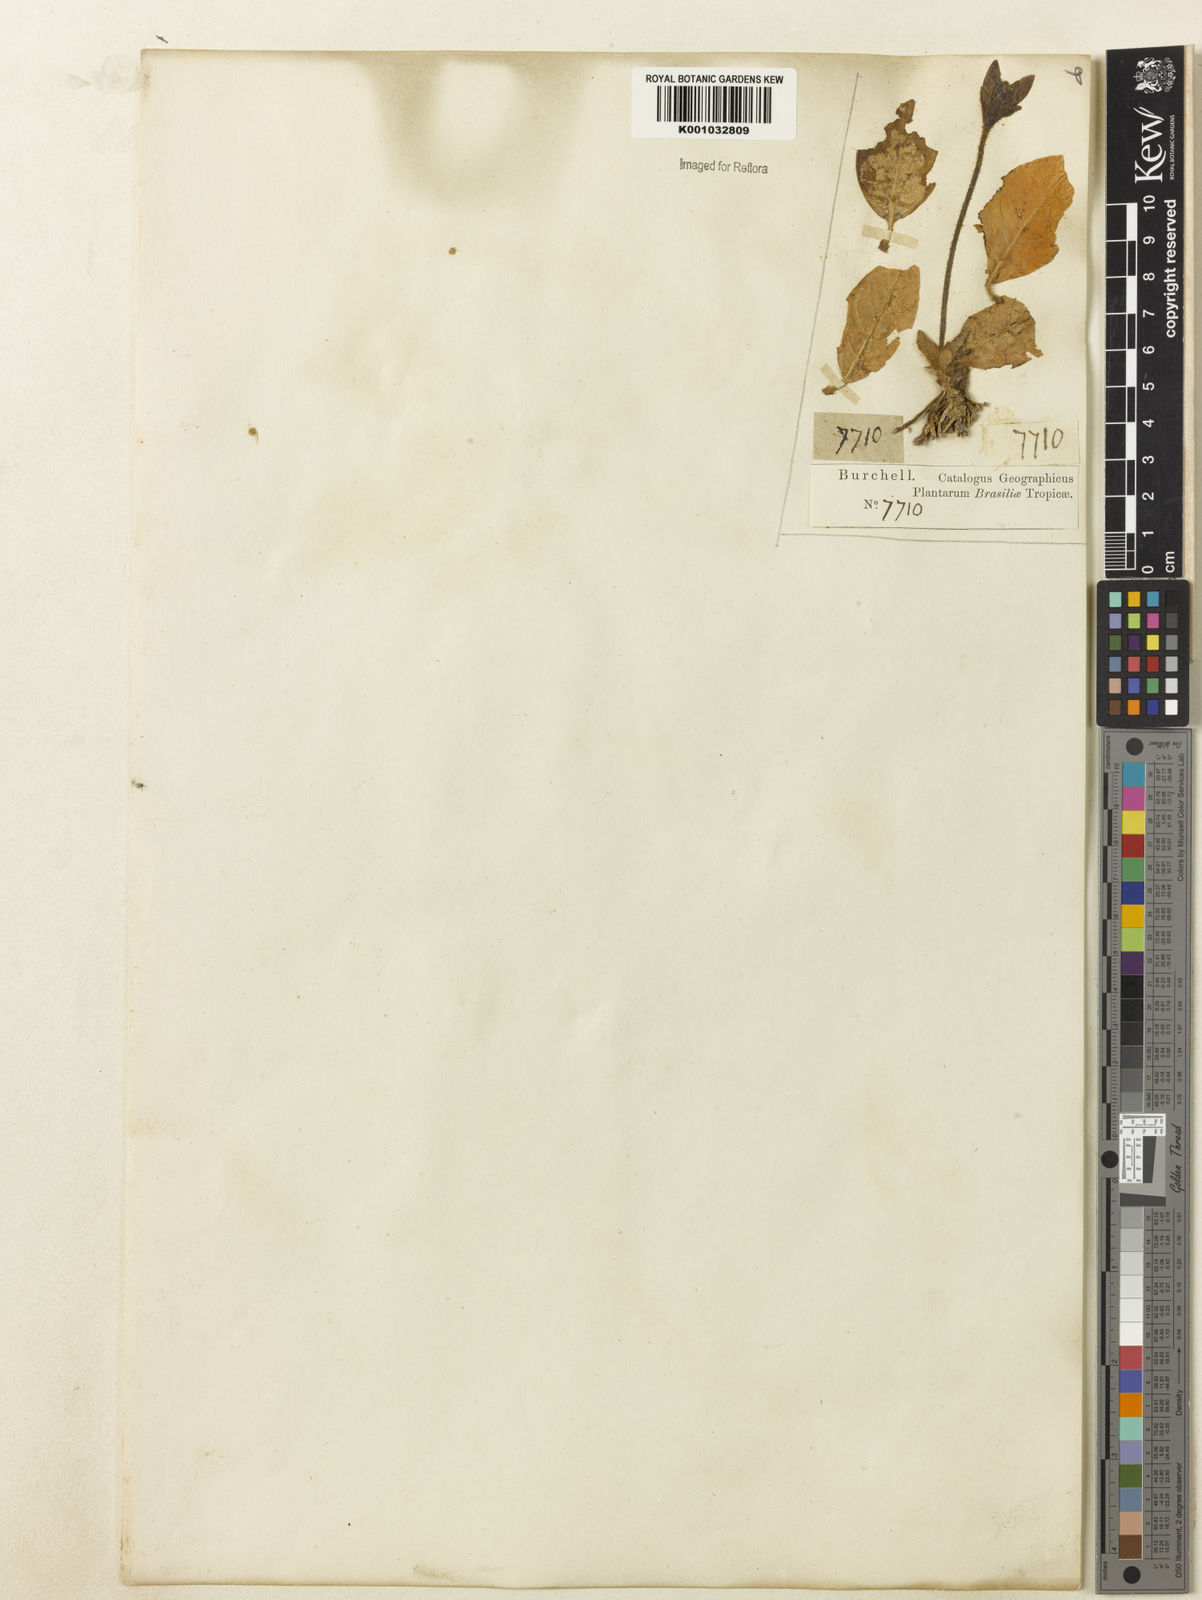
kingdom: Plantae
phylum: Tracheophyta
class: Magnoliopsida
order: Lamiales
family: Acanthaceae
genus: Stenandrium
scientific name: Stenandrium pohlii
